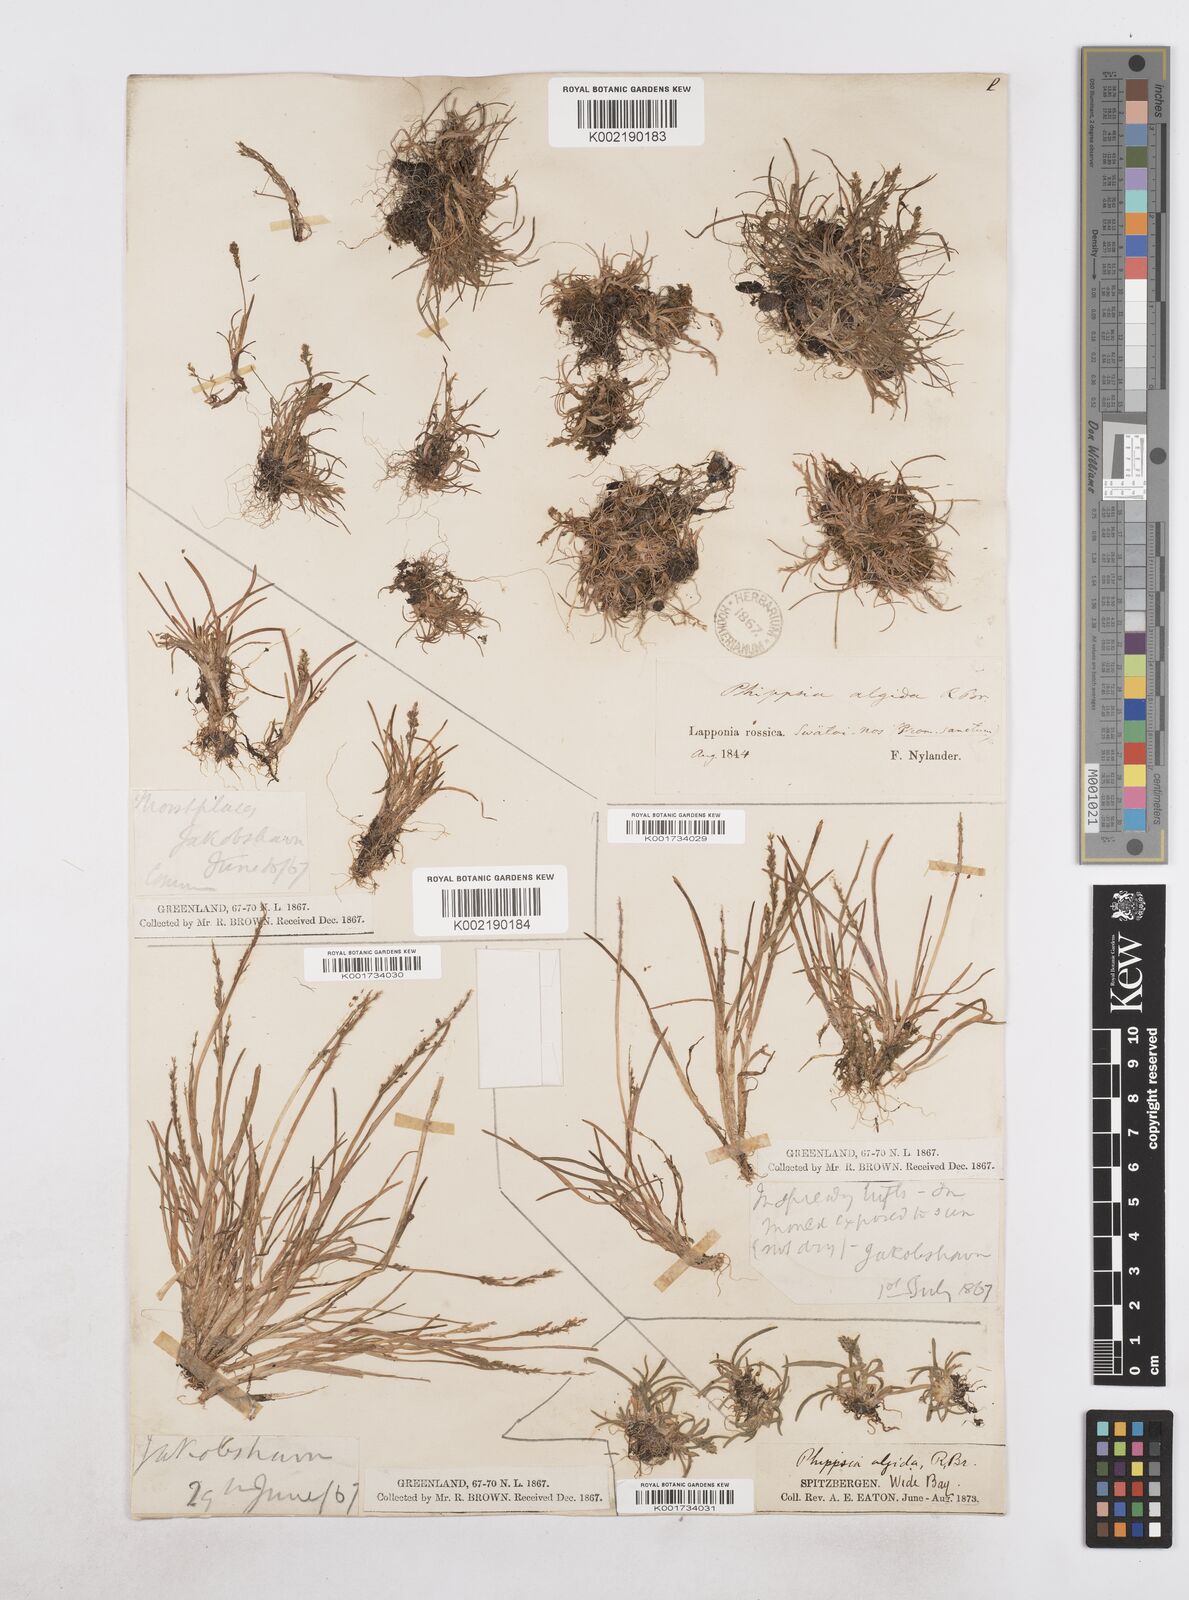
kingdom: Plantae
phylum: Tracheophyta
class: Liliopsida
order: Poales
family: Poaceae
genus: Phippsia
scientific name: Phippsia algida
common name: Ice grass
